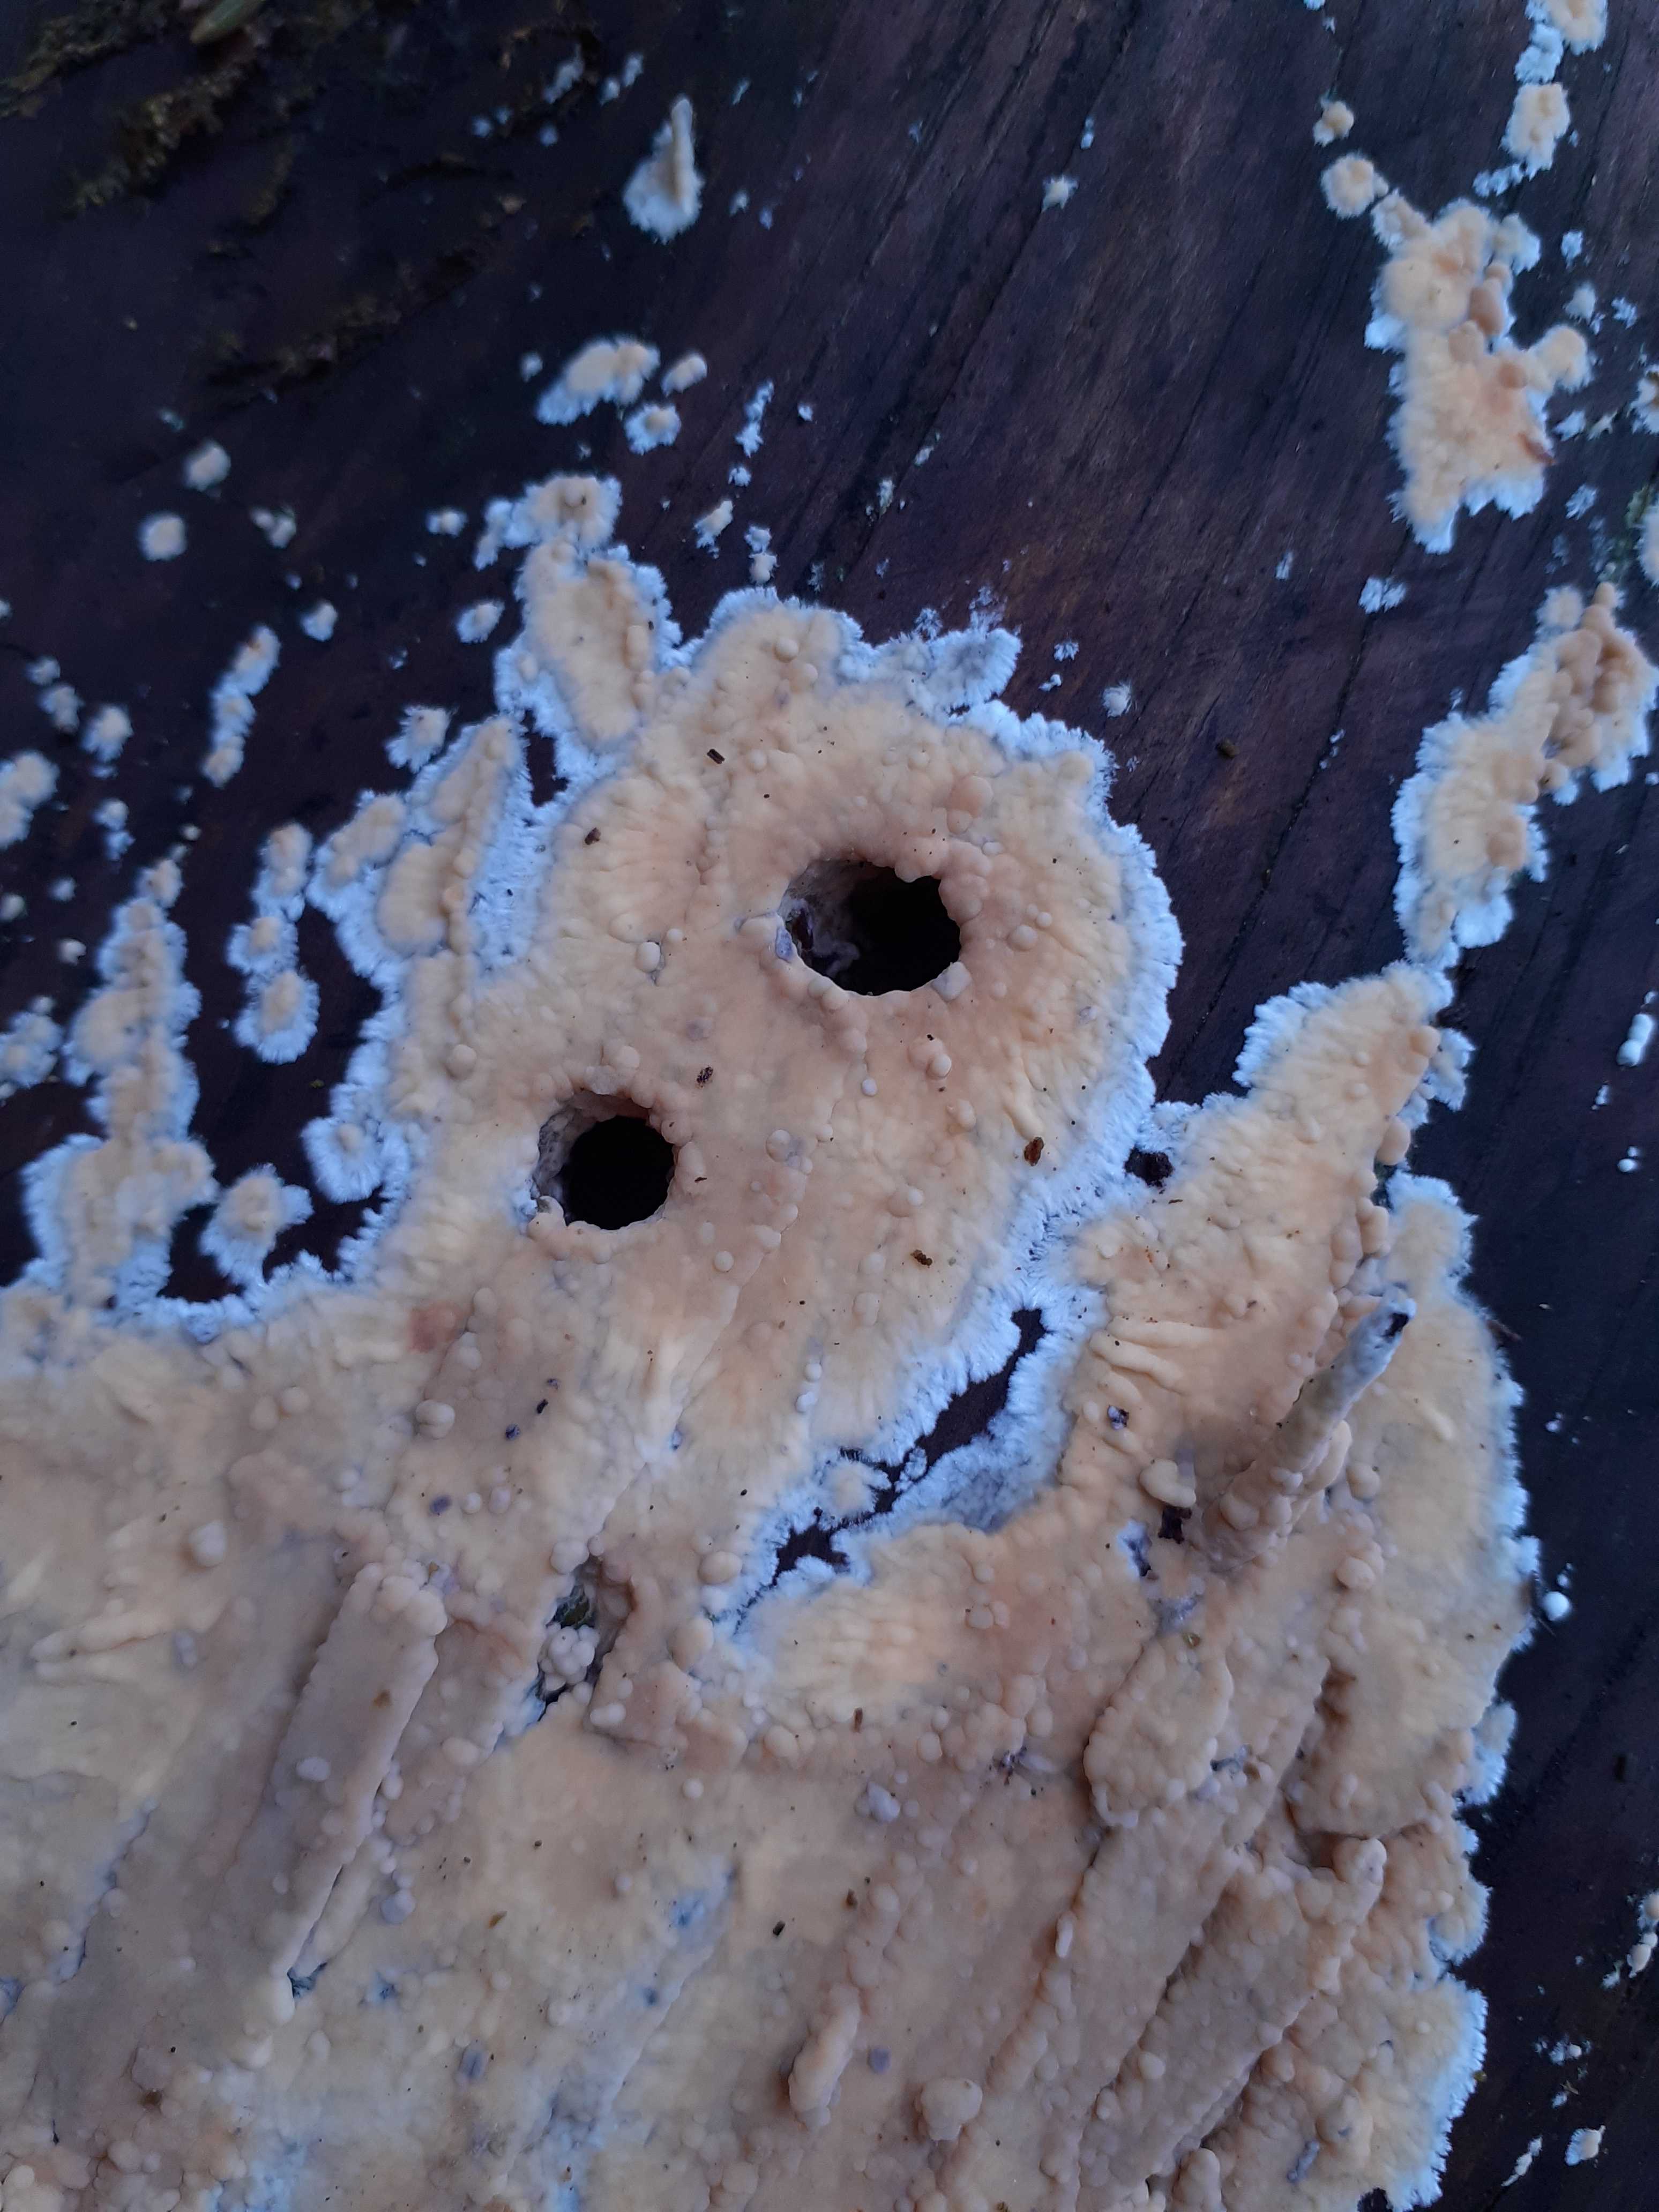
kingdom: Fungi
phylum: Basidiomycota
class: Agaricomycetes
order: Russulales
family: Peniophoraceae
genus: Gloiothele
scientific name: Gloiothele citrina
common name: citronskorpe
